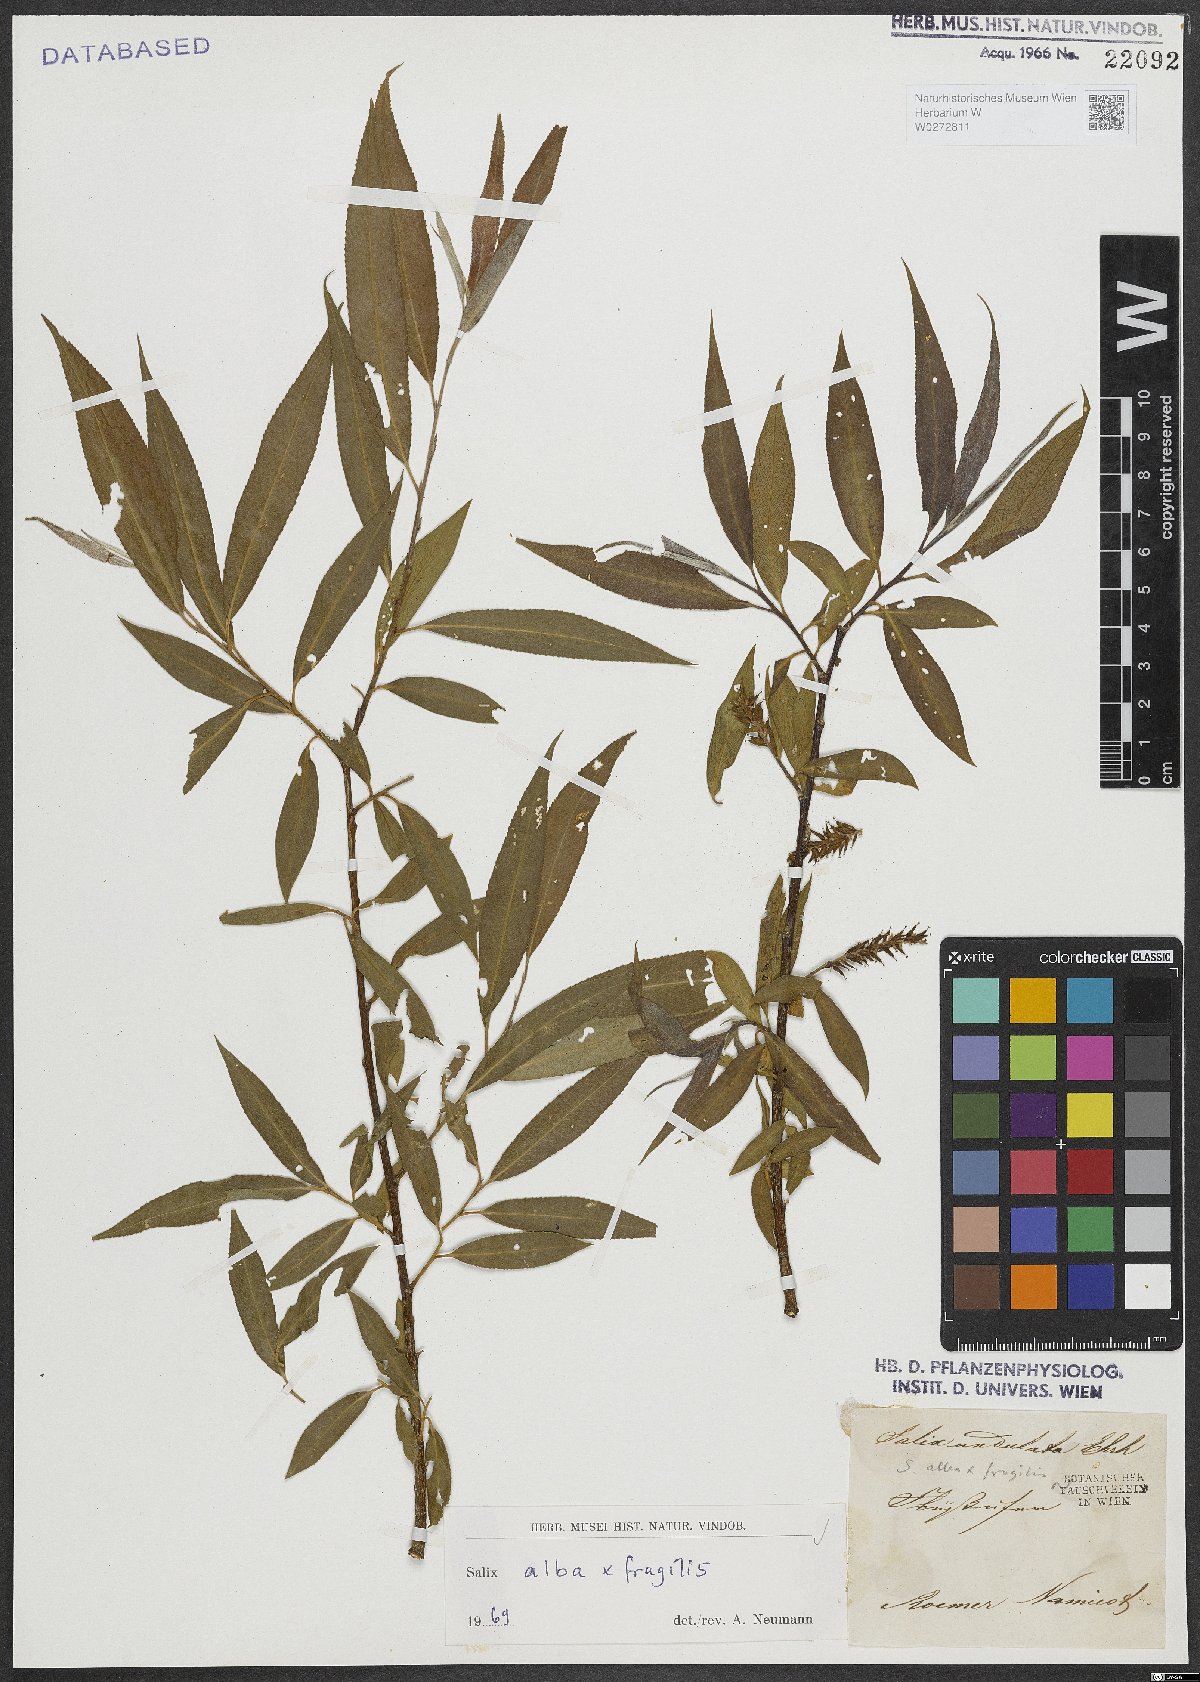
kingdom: Plantae
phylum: Tracheophyta
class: Magnoliopsida
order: Malpighiales
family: Salicaceae
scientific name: Salicaceae
